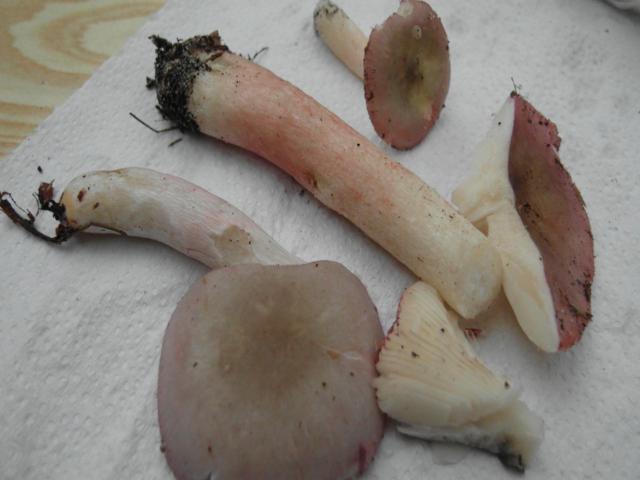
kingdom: Fungi
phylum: Basidiomycota
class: Agaricomycetes
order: Russulales
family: Russulaceae
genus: Russula
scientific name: Russula
